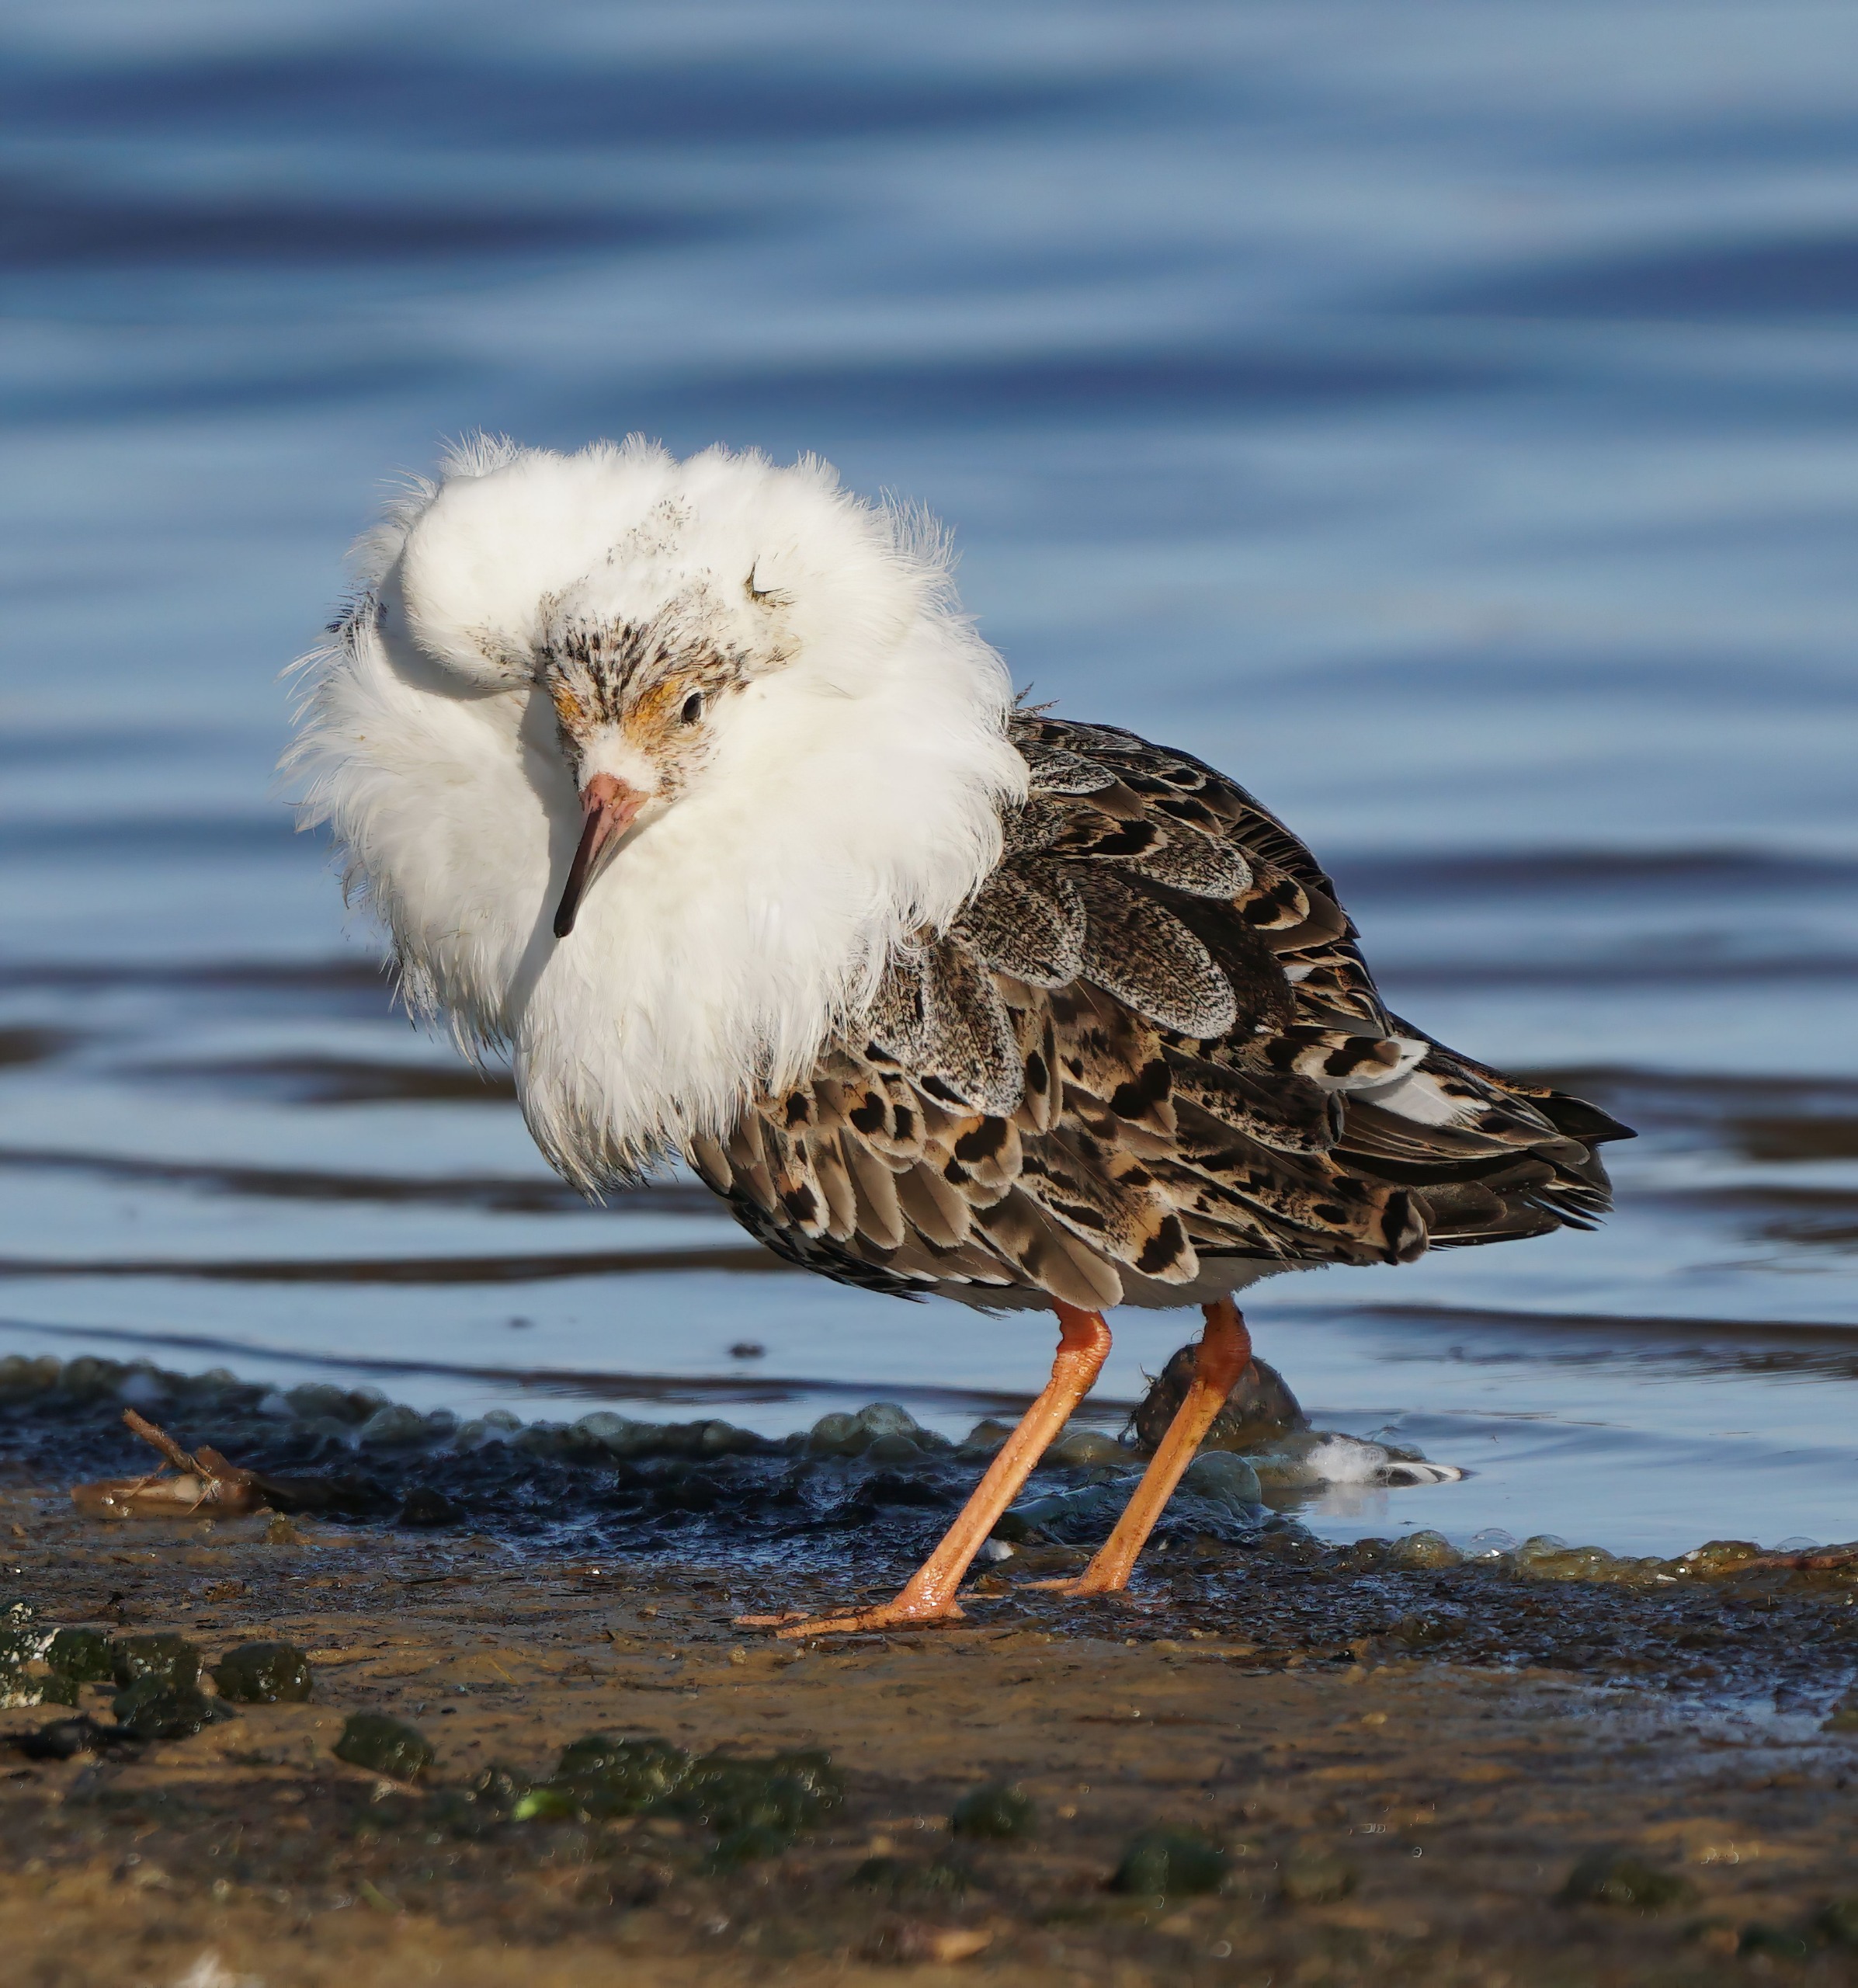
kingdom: Animalia
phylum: Chordata
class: Aves
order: Charadriiformes
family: Scolopacidae
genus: Calidris
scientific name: Calidris pugnax
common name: Brushane
